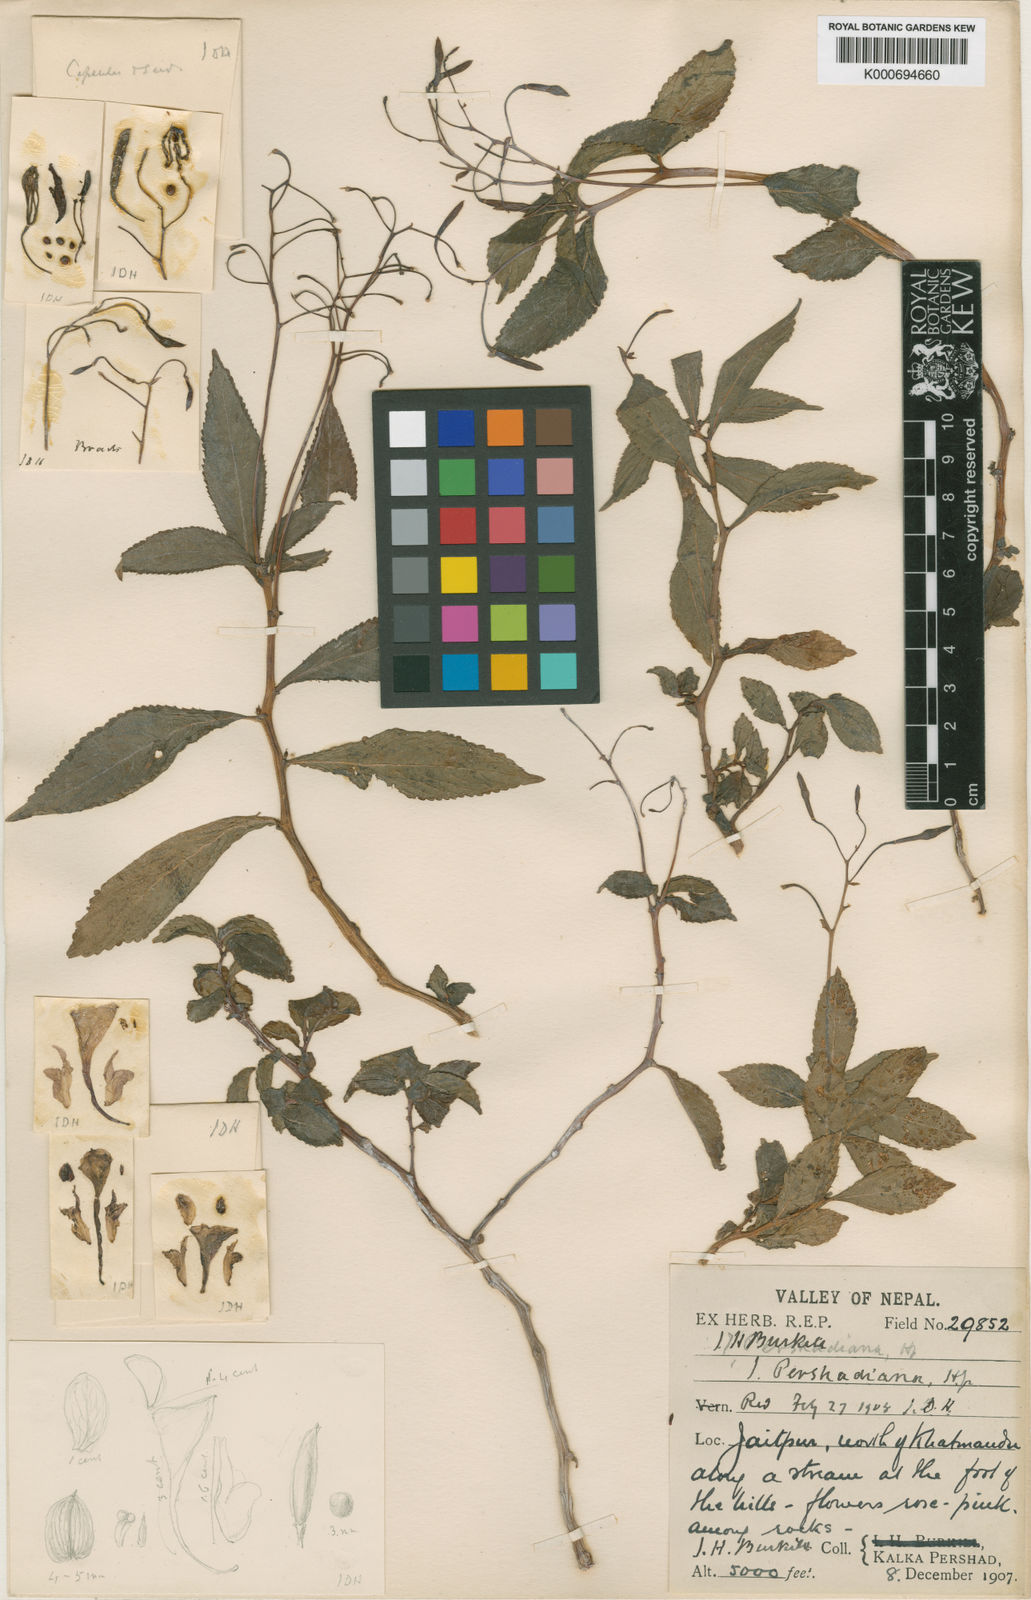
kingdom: Plantae
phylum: Tracheophyta
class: Magnoliopsida
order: Ericales
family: Balsaminaceae
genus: Impatiens
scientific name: Impatiens
